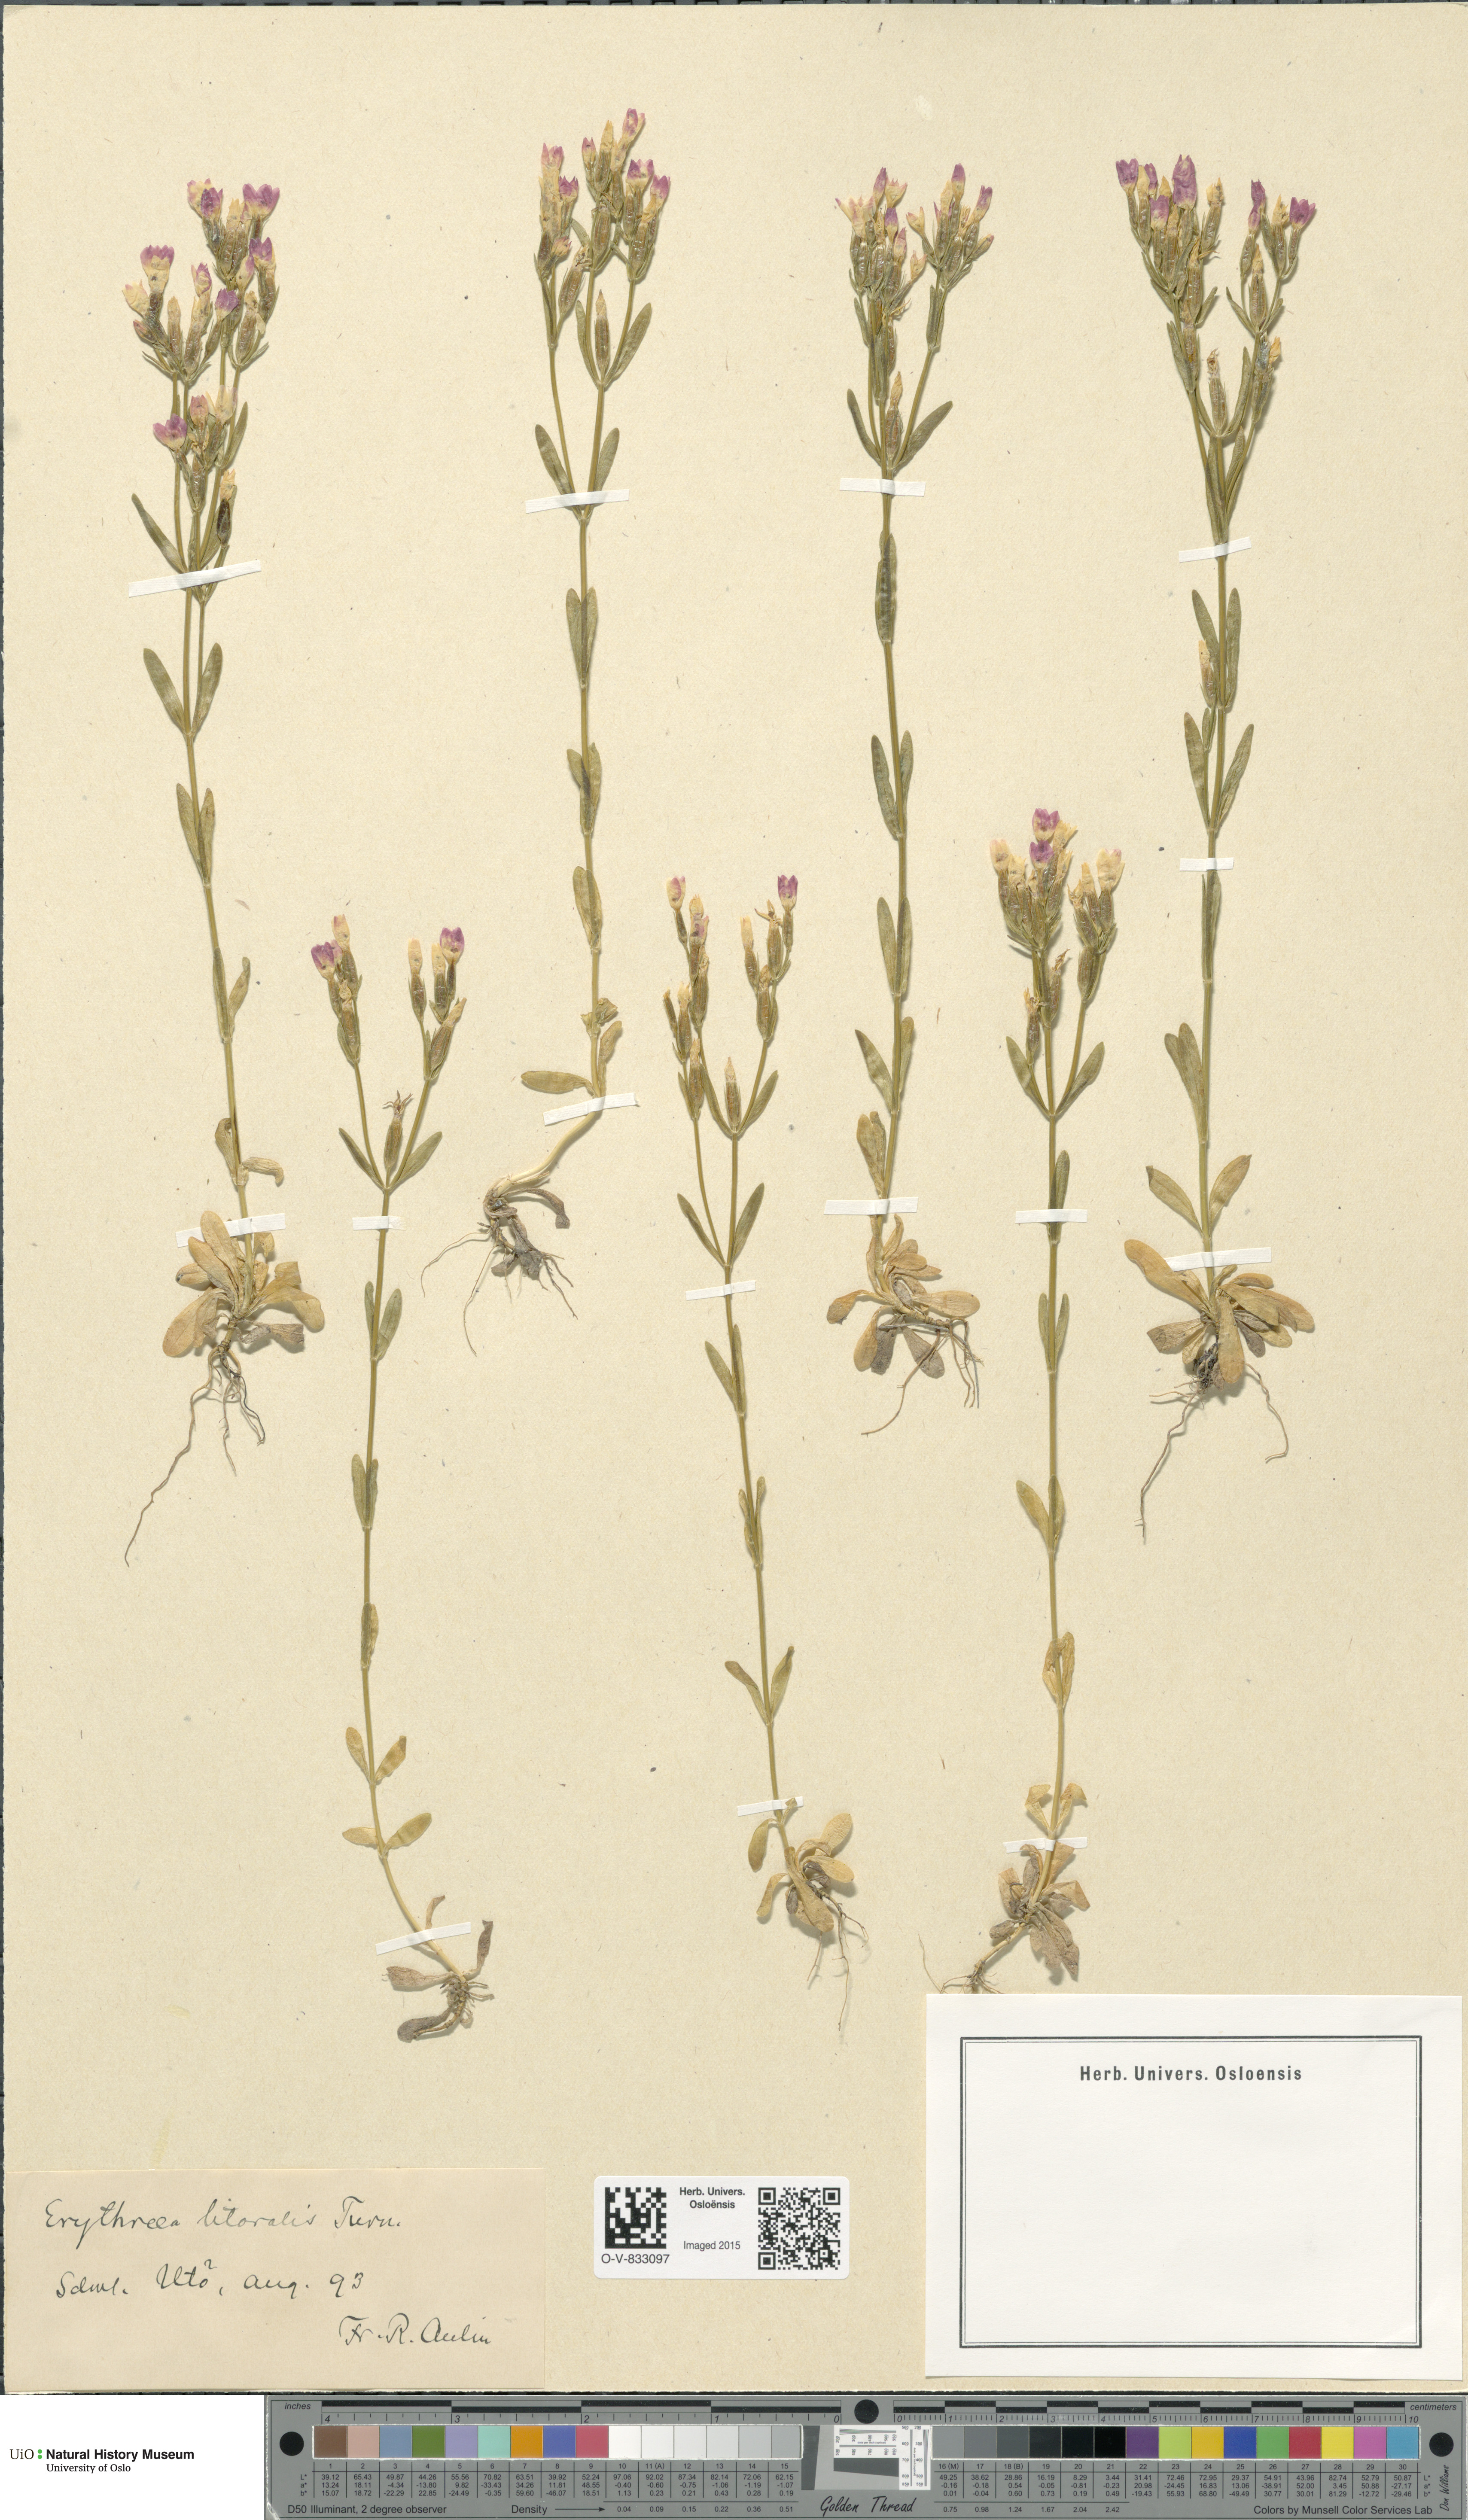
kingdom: Plantae
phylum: Tracheophyta
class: Magnoliopsida
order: Gentianales
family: Gentianaceae
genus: Centaurium
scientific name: Centaurium littorale
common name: Seaside centaury
